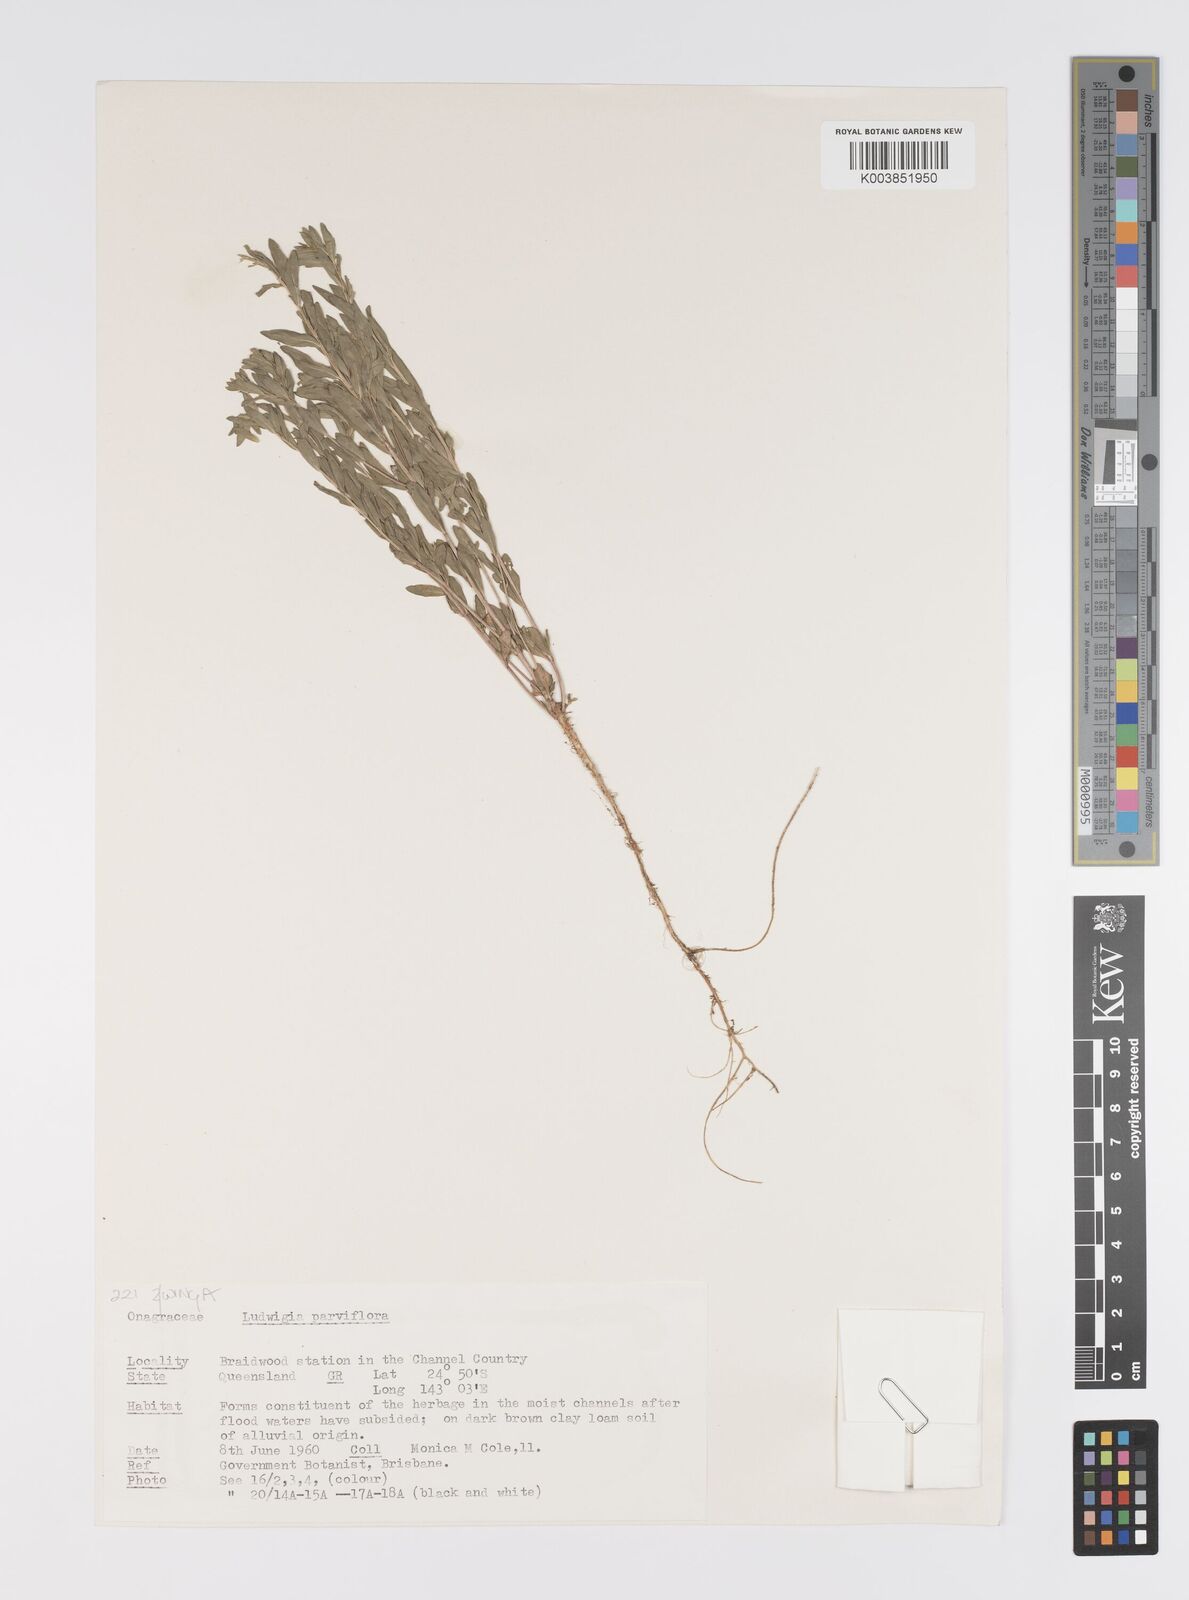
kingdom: Plantae
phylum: Tracheophyta
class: Magnoliopsida
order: Myrtales
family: Onagraceae
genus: Ludwigia
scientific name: Ludwigia perennis
